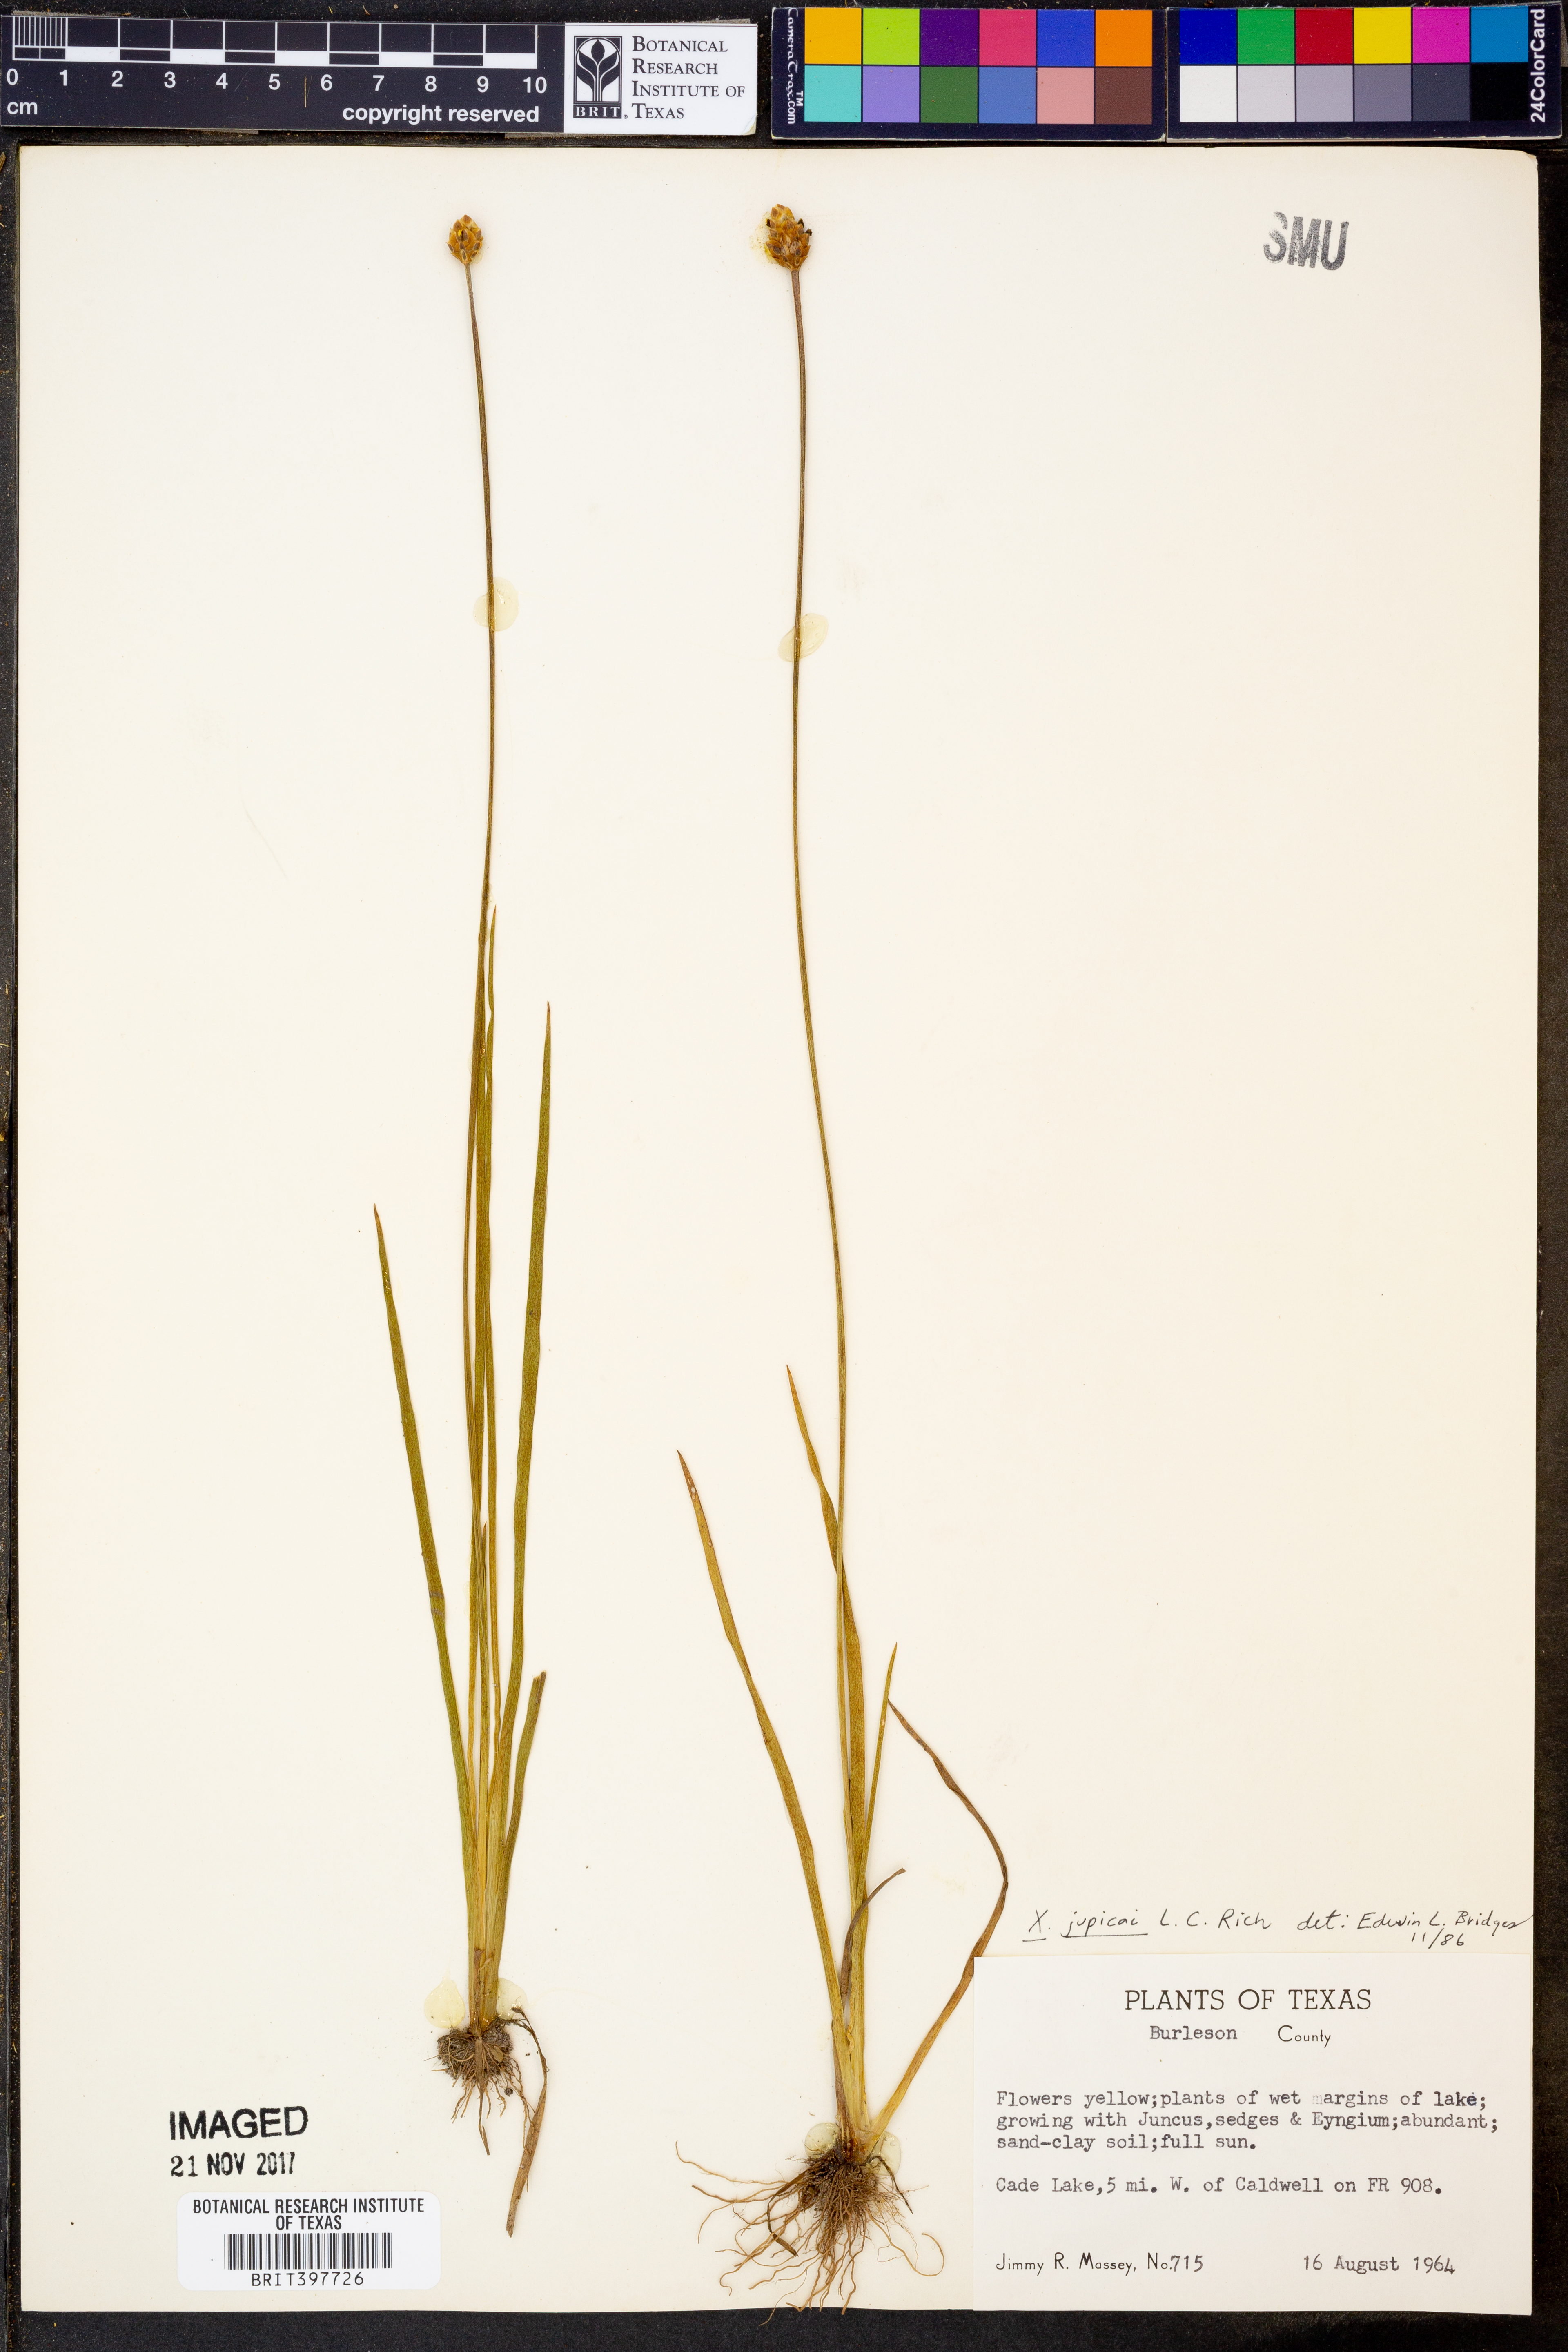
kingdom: Plantae
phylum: Tracheophyta
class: Liliopsida
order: Poales
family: Xyridaceae
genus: Xyris
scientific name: Xyris jupicai
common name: Richard's yelloweyed grass
